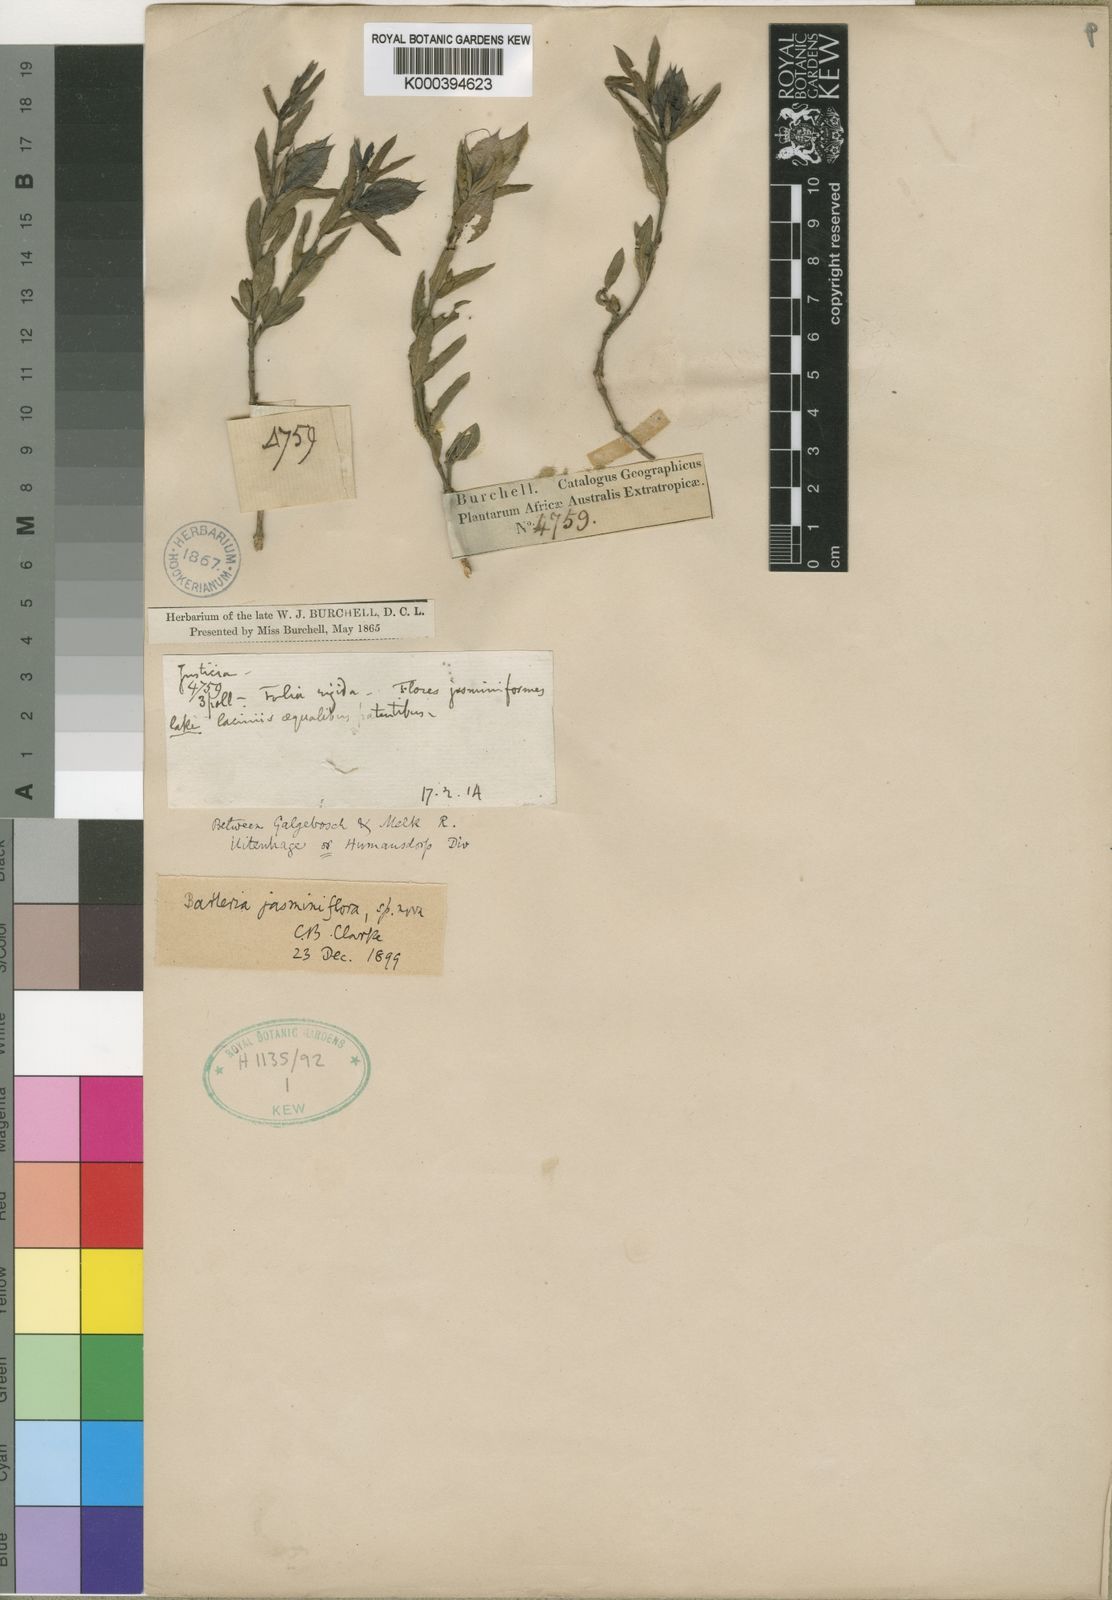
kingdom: Plantae
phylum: Tracheophyta
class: Magnoliopsida
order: Lamiales
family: Acanthaceae
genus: Barleria
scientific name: Barleria jasminiflora
